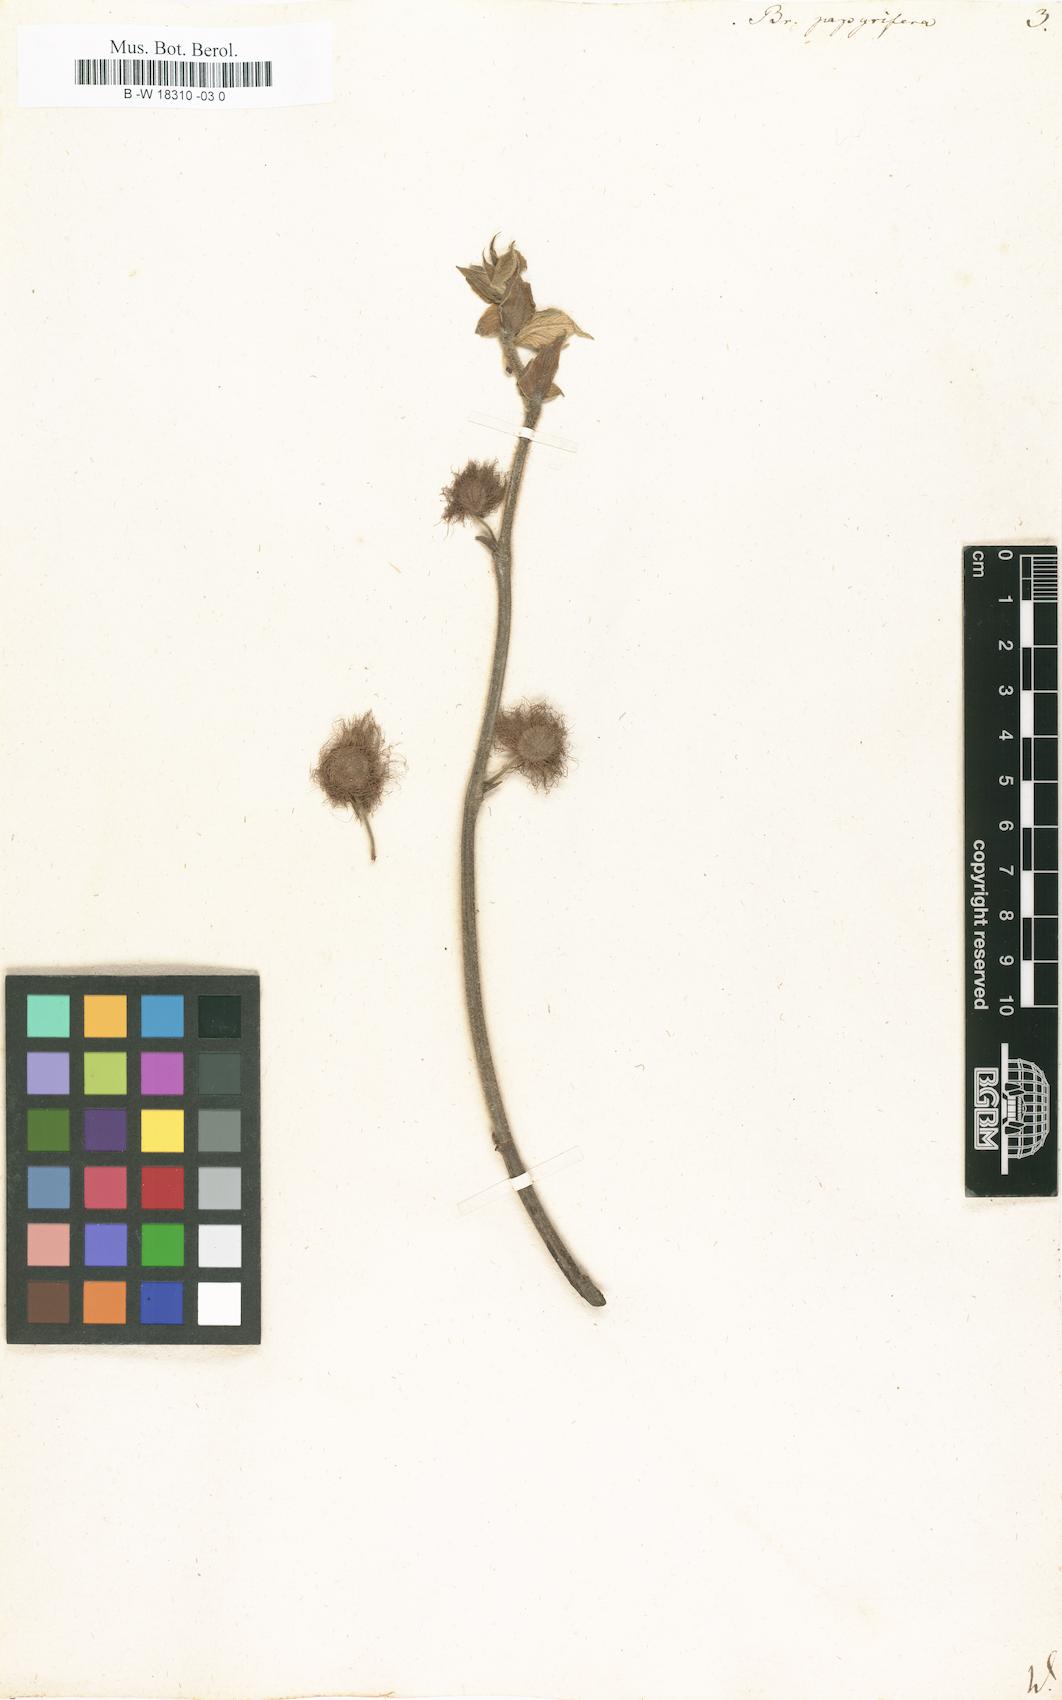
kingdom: Plantae
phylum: Tracheophyta
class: Magnoliopsida
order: Rosales
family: Moraceae
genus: Broussonetia
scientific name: Broussonetia papyrifera
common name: Paper mulberry
